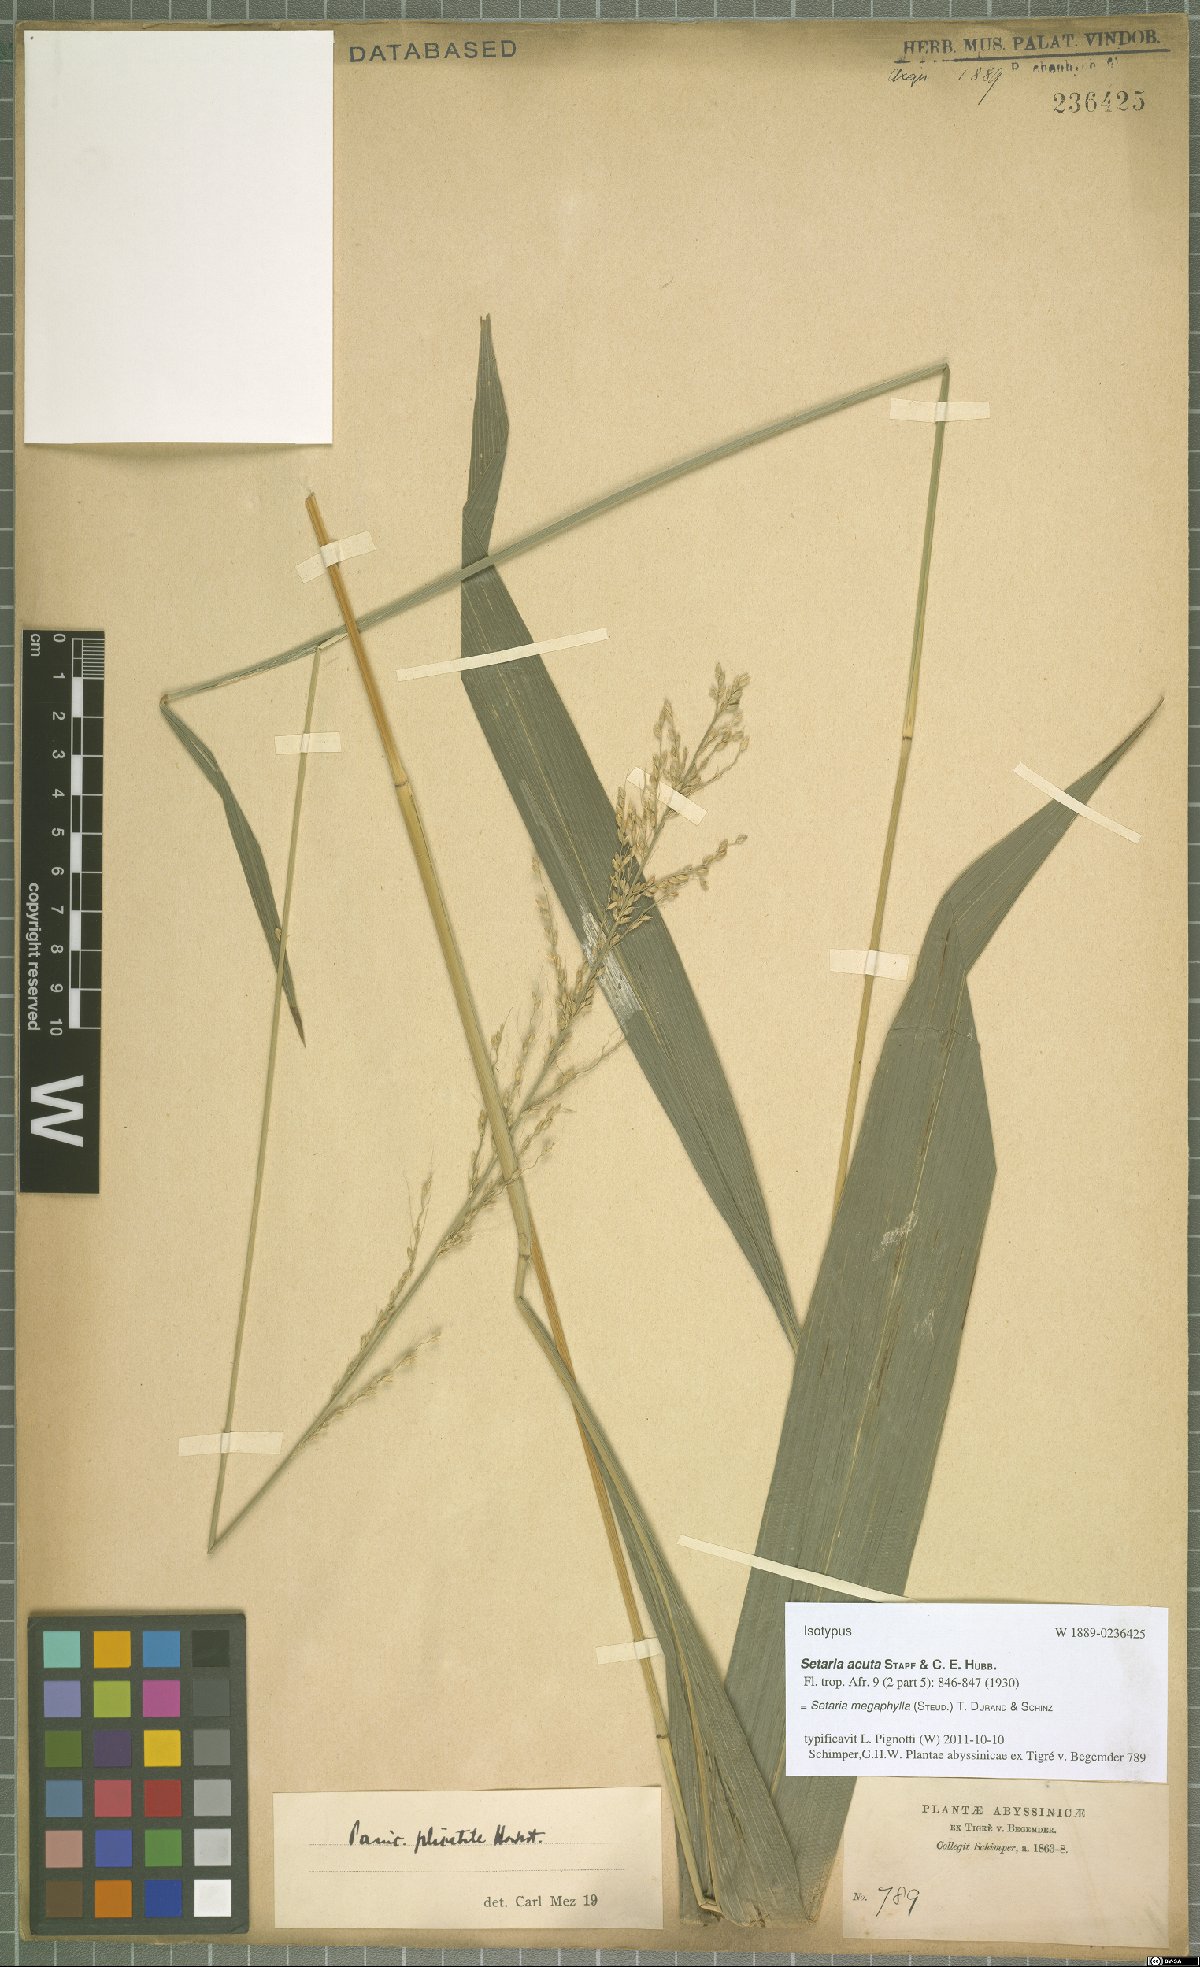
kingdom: Plantae
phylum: Tracheophyta
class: Liliopsida
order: Poales
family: Poaceae
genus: Setaria
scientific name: Setaria megaphylla
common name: Bigleaf bristlegrass
